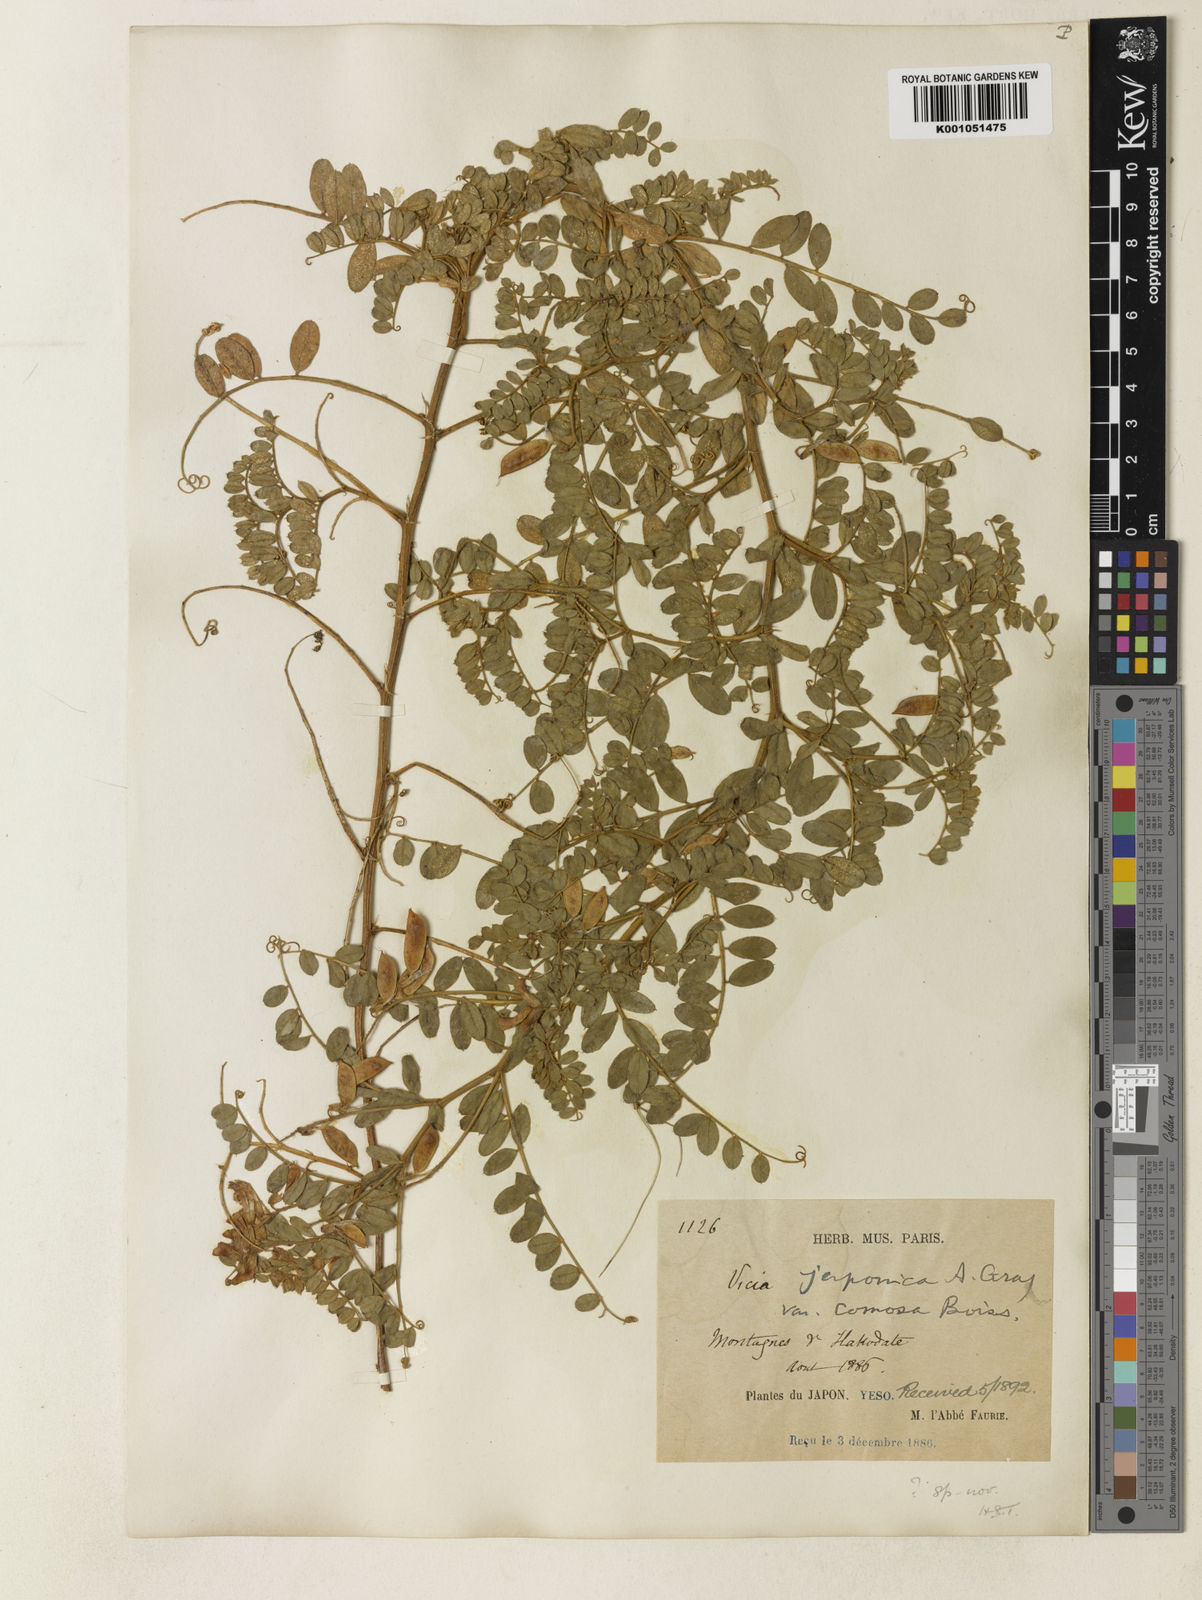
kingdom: Plantae
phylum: Tracheophyta
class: Magnoliopsida
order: Fabales
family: Fabaceae
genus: Vicia
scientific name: Vicia japonica
